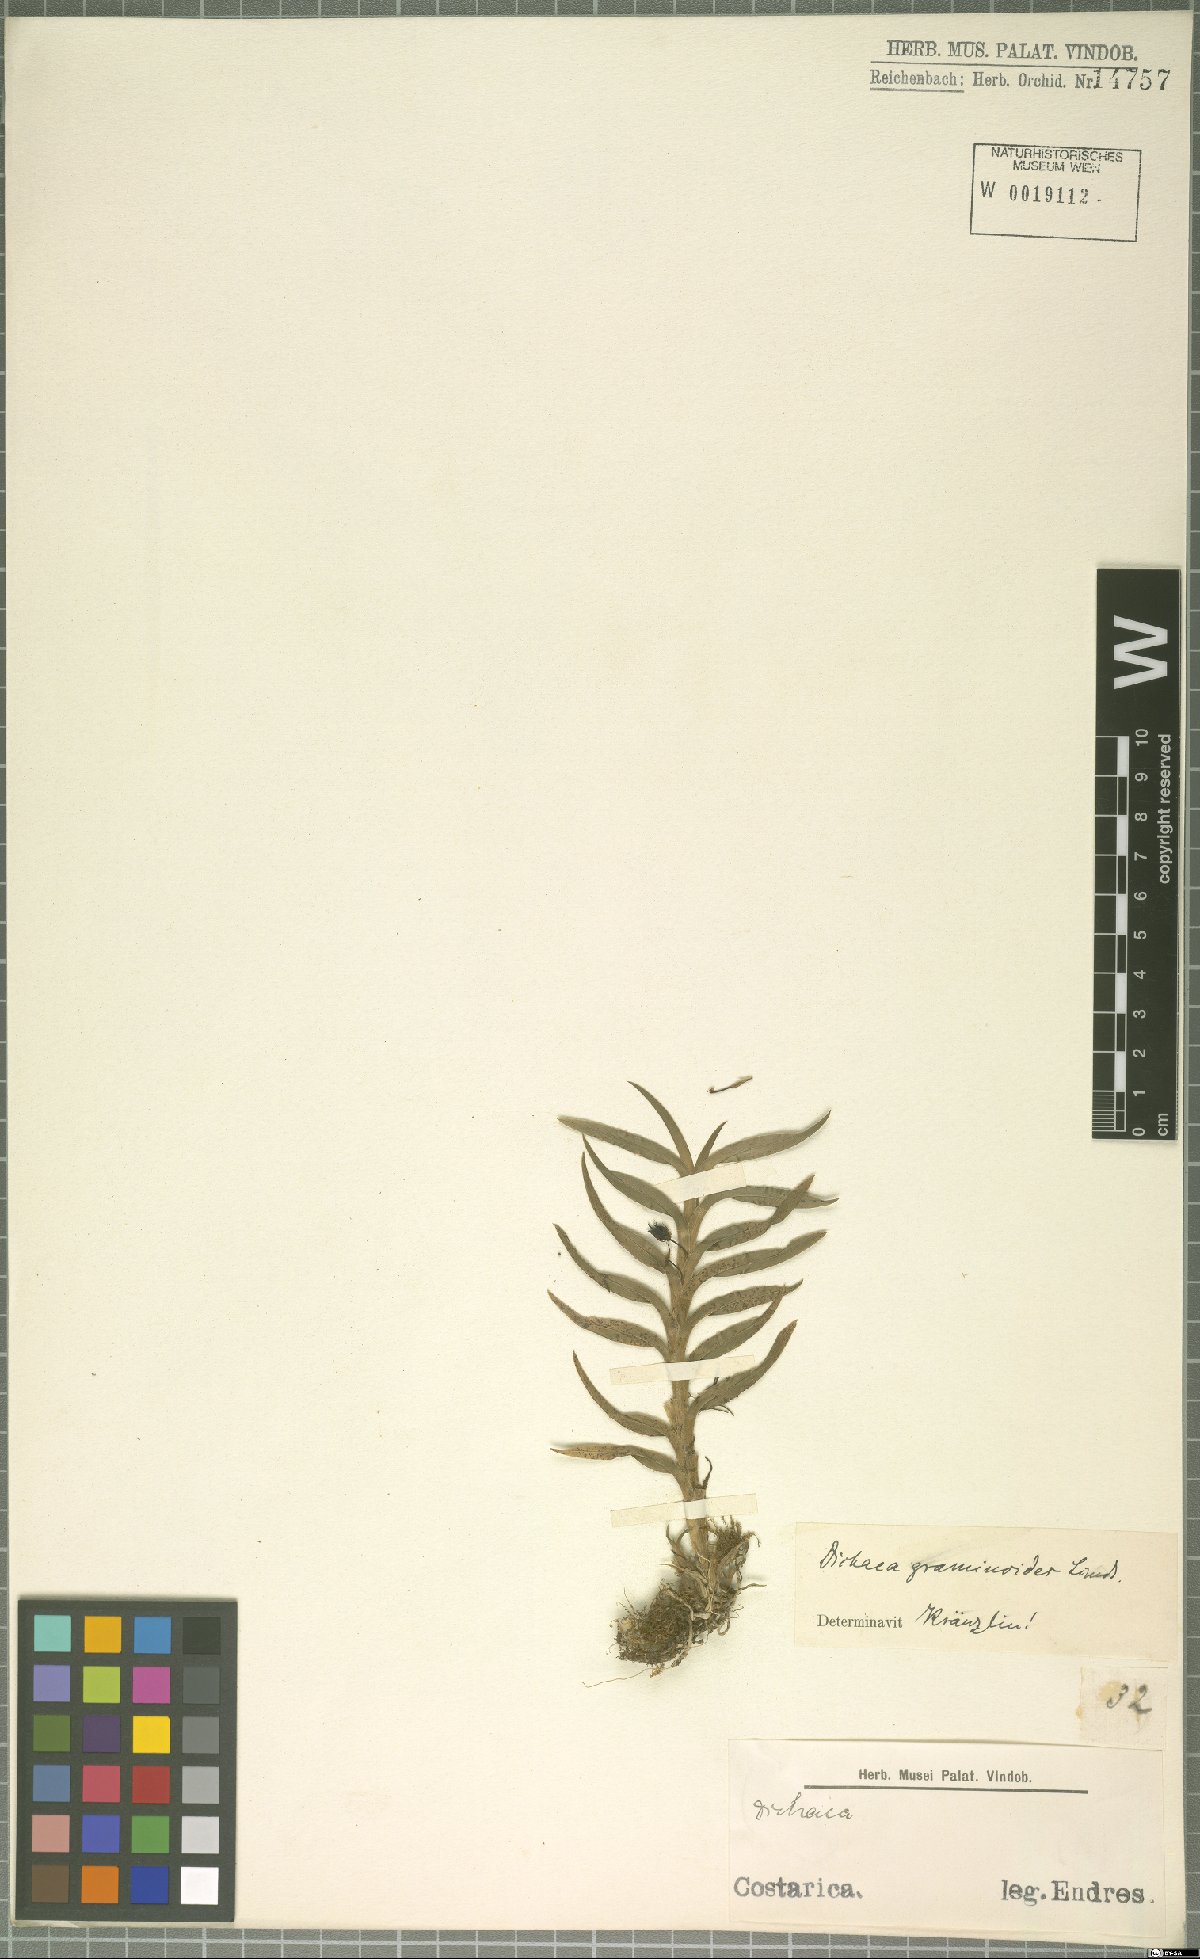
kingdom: Plantae
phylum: Tracheophyta
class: Liliopsida
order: Asparagales
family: Orchidaceae
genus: Dichaea
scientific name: Dichaea graminoides
